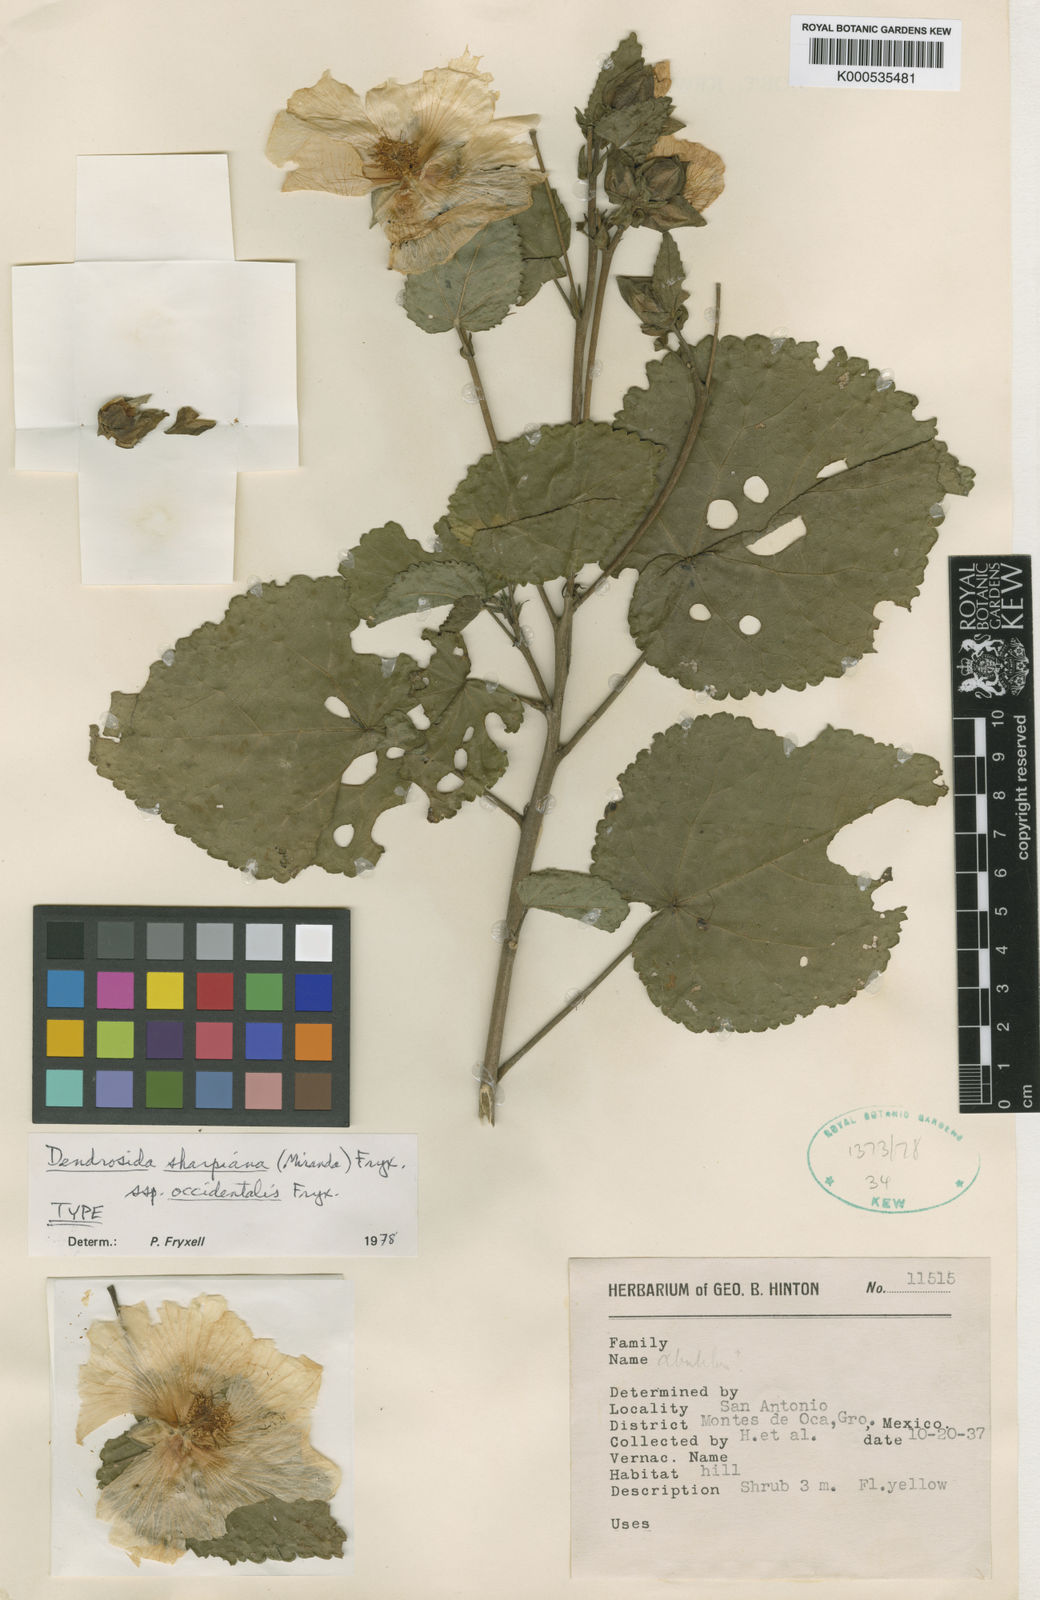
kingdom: Plantae
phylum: Tracheophyta
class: Magnoliopsida
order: Malvales
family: Malvaceae
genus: Dendrosida
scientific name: Dendrosida sharpiana
